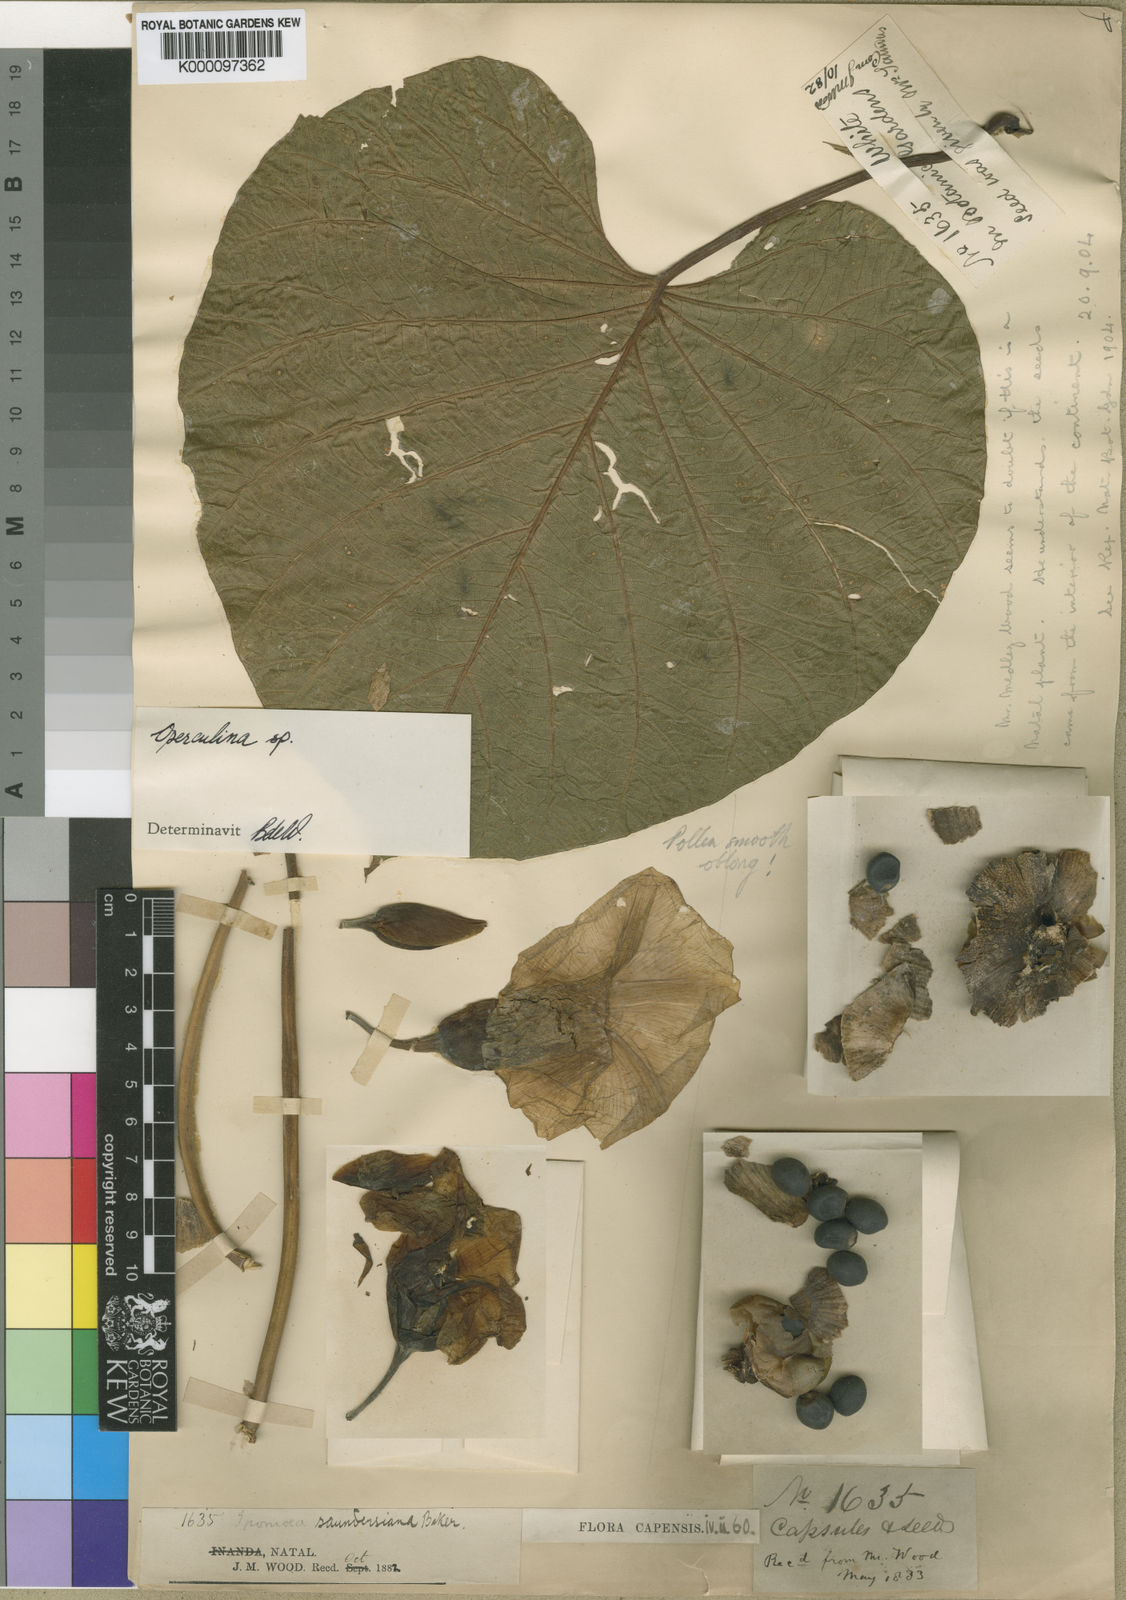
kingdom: Plantae
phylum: Tracheophyta
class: Magnoliopsida
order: Solanales
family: Convolvulaceae
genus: Operculina
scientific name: Operculina turpethum
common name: Transparent wood-rose
